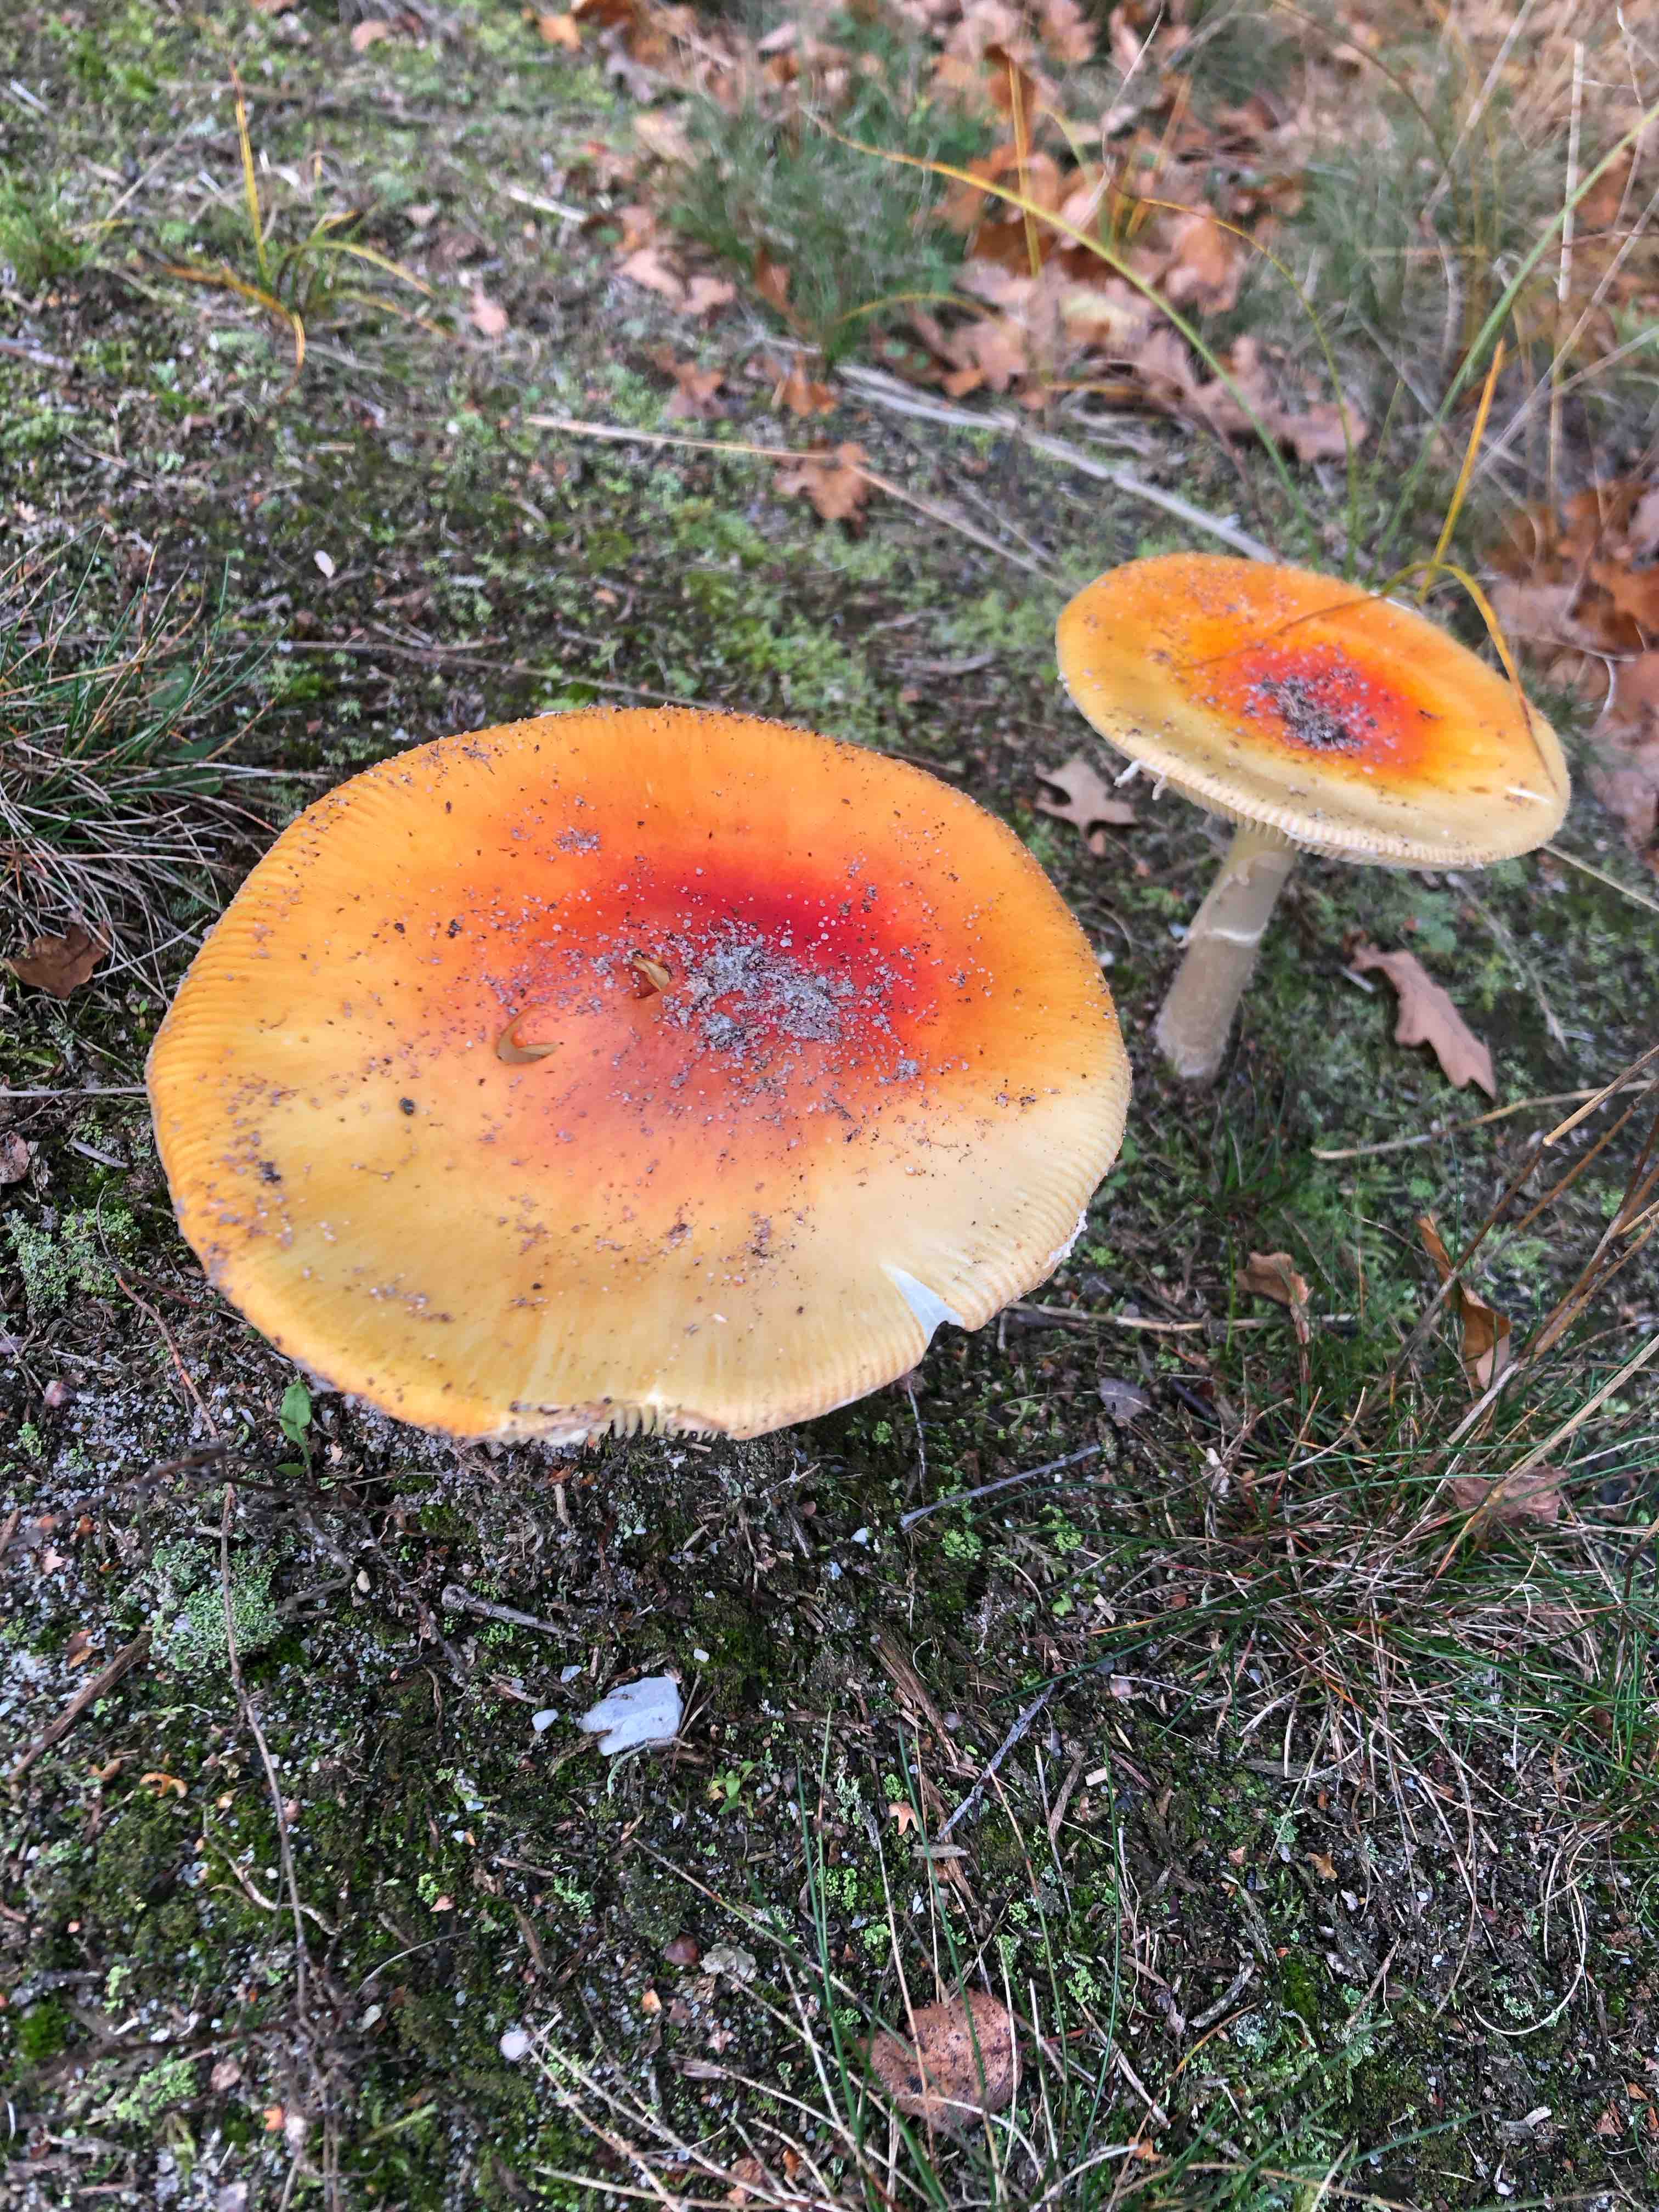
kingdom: Fungi
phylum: Basidiomycota
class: Agaricomycetes
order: Agaricales
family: Amanitaceae
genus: Amanita
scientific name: Amanita muscaria
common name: rød fluesvamp
